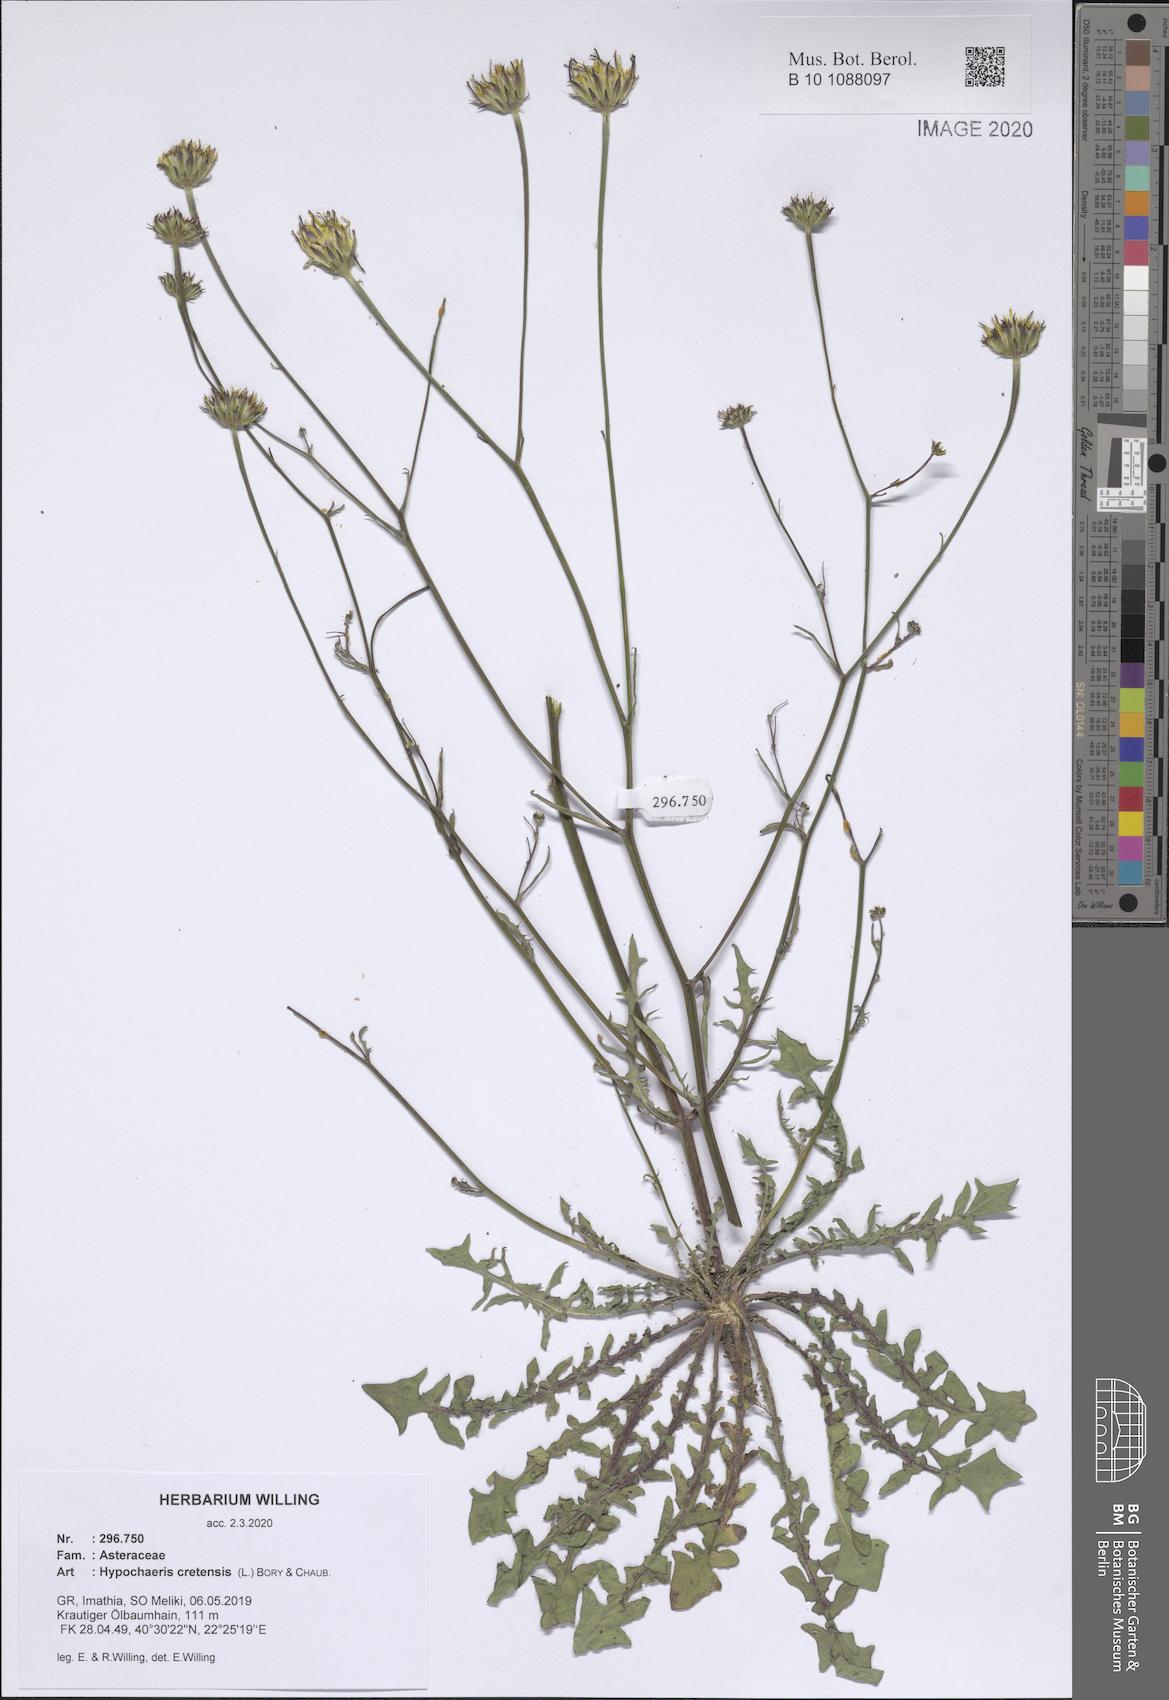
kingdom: Plantae
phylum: Tracheophyta
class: Magnoliopsida
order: Asterales
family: Asteraceae
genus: Hypochaeris
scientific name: Hypochaeris cretensis
